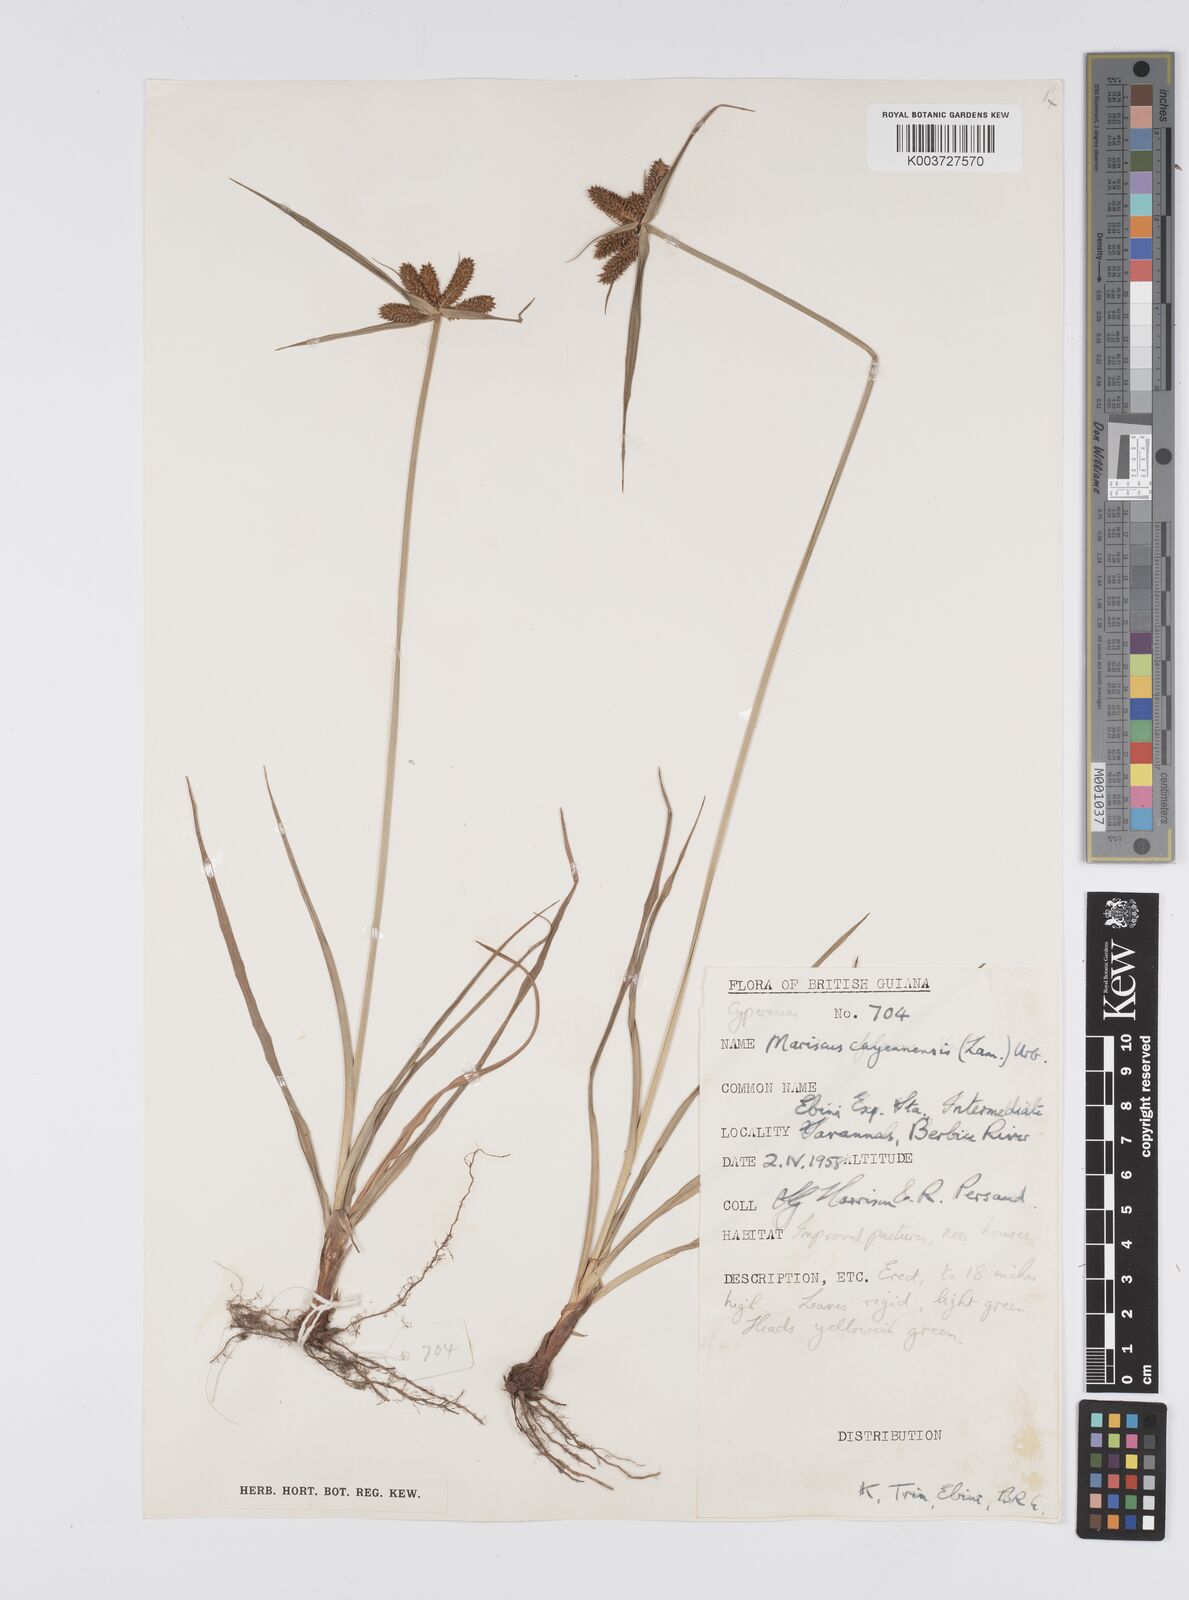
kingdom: Plantae
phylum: Tracheophyta
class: Liliopsida
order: Poales
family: Cyperaceae
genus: Cyperus
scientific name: Cyperus aggregatus
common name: Inflatedscale flatsedge
